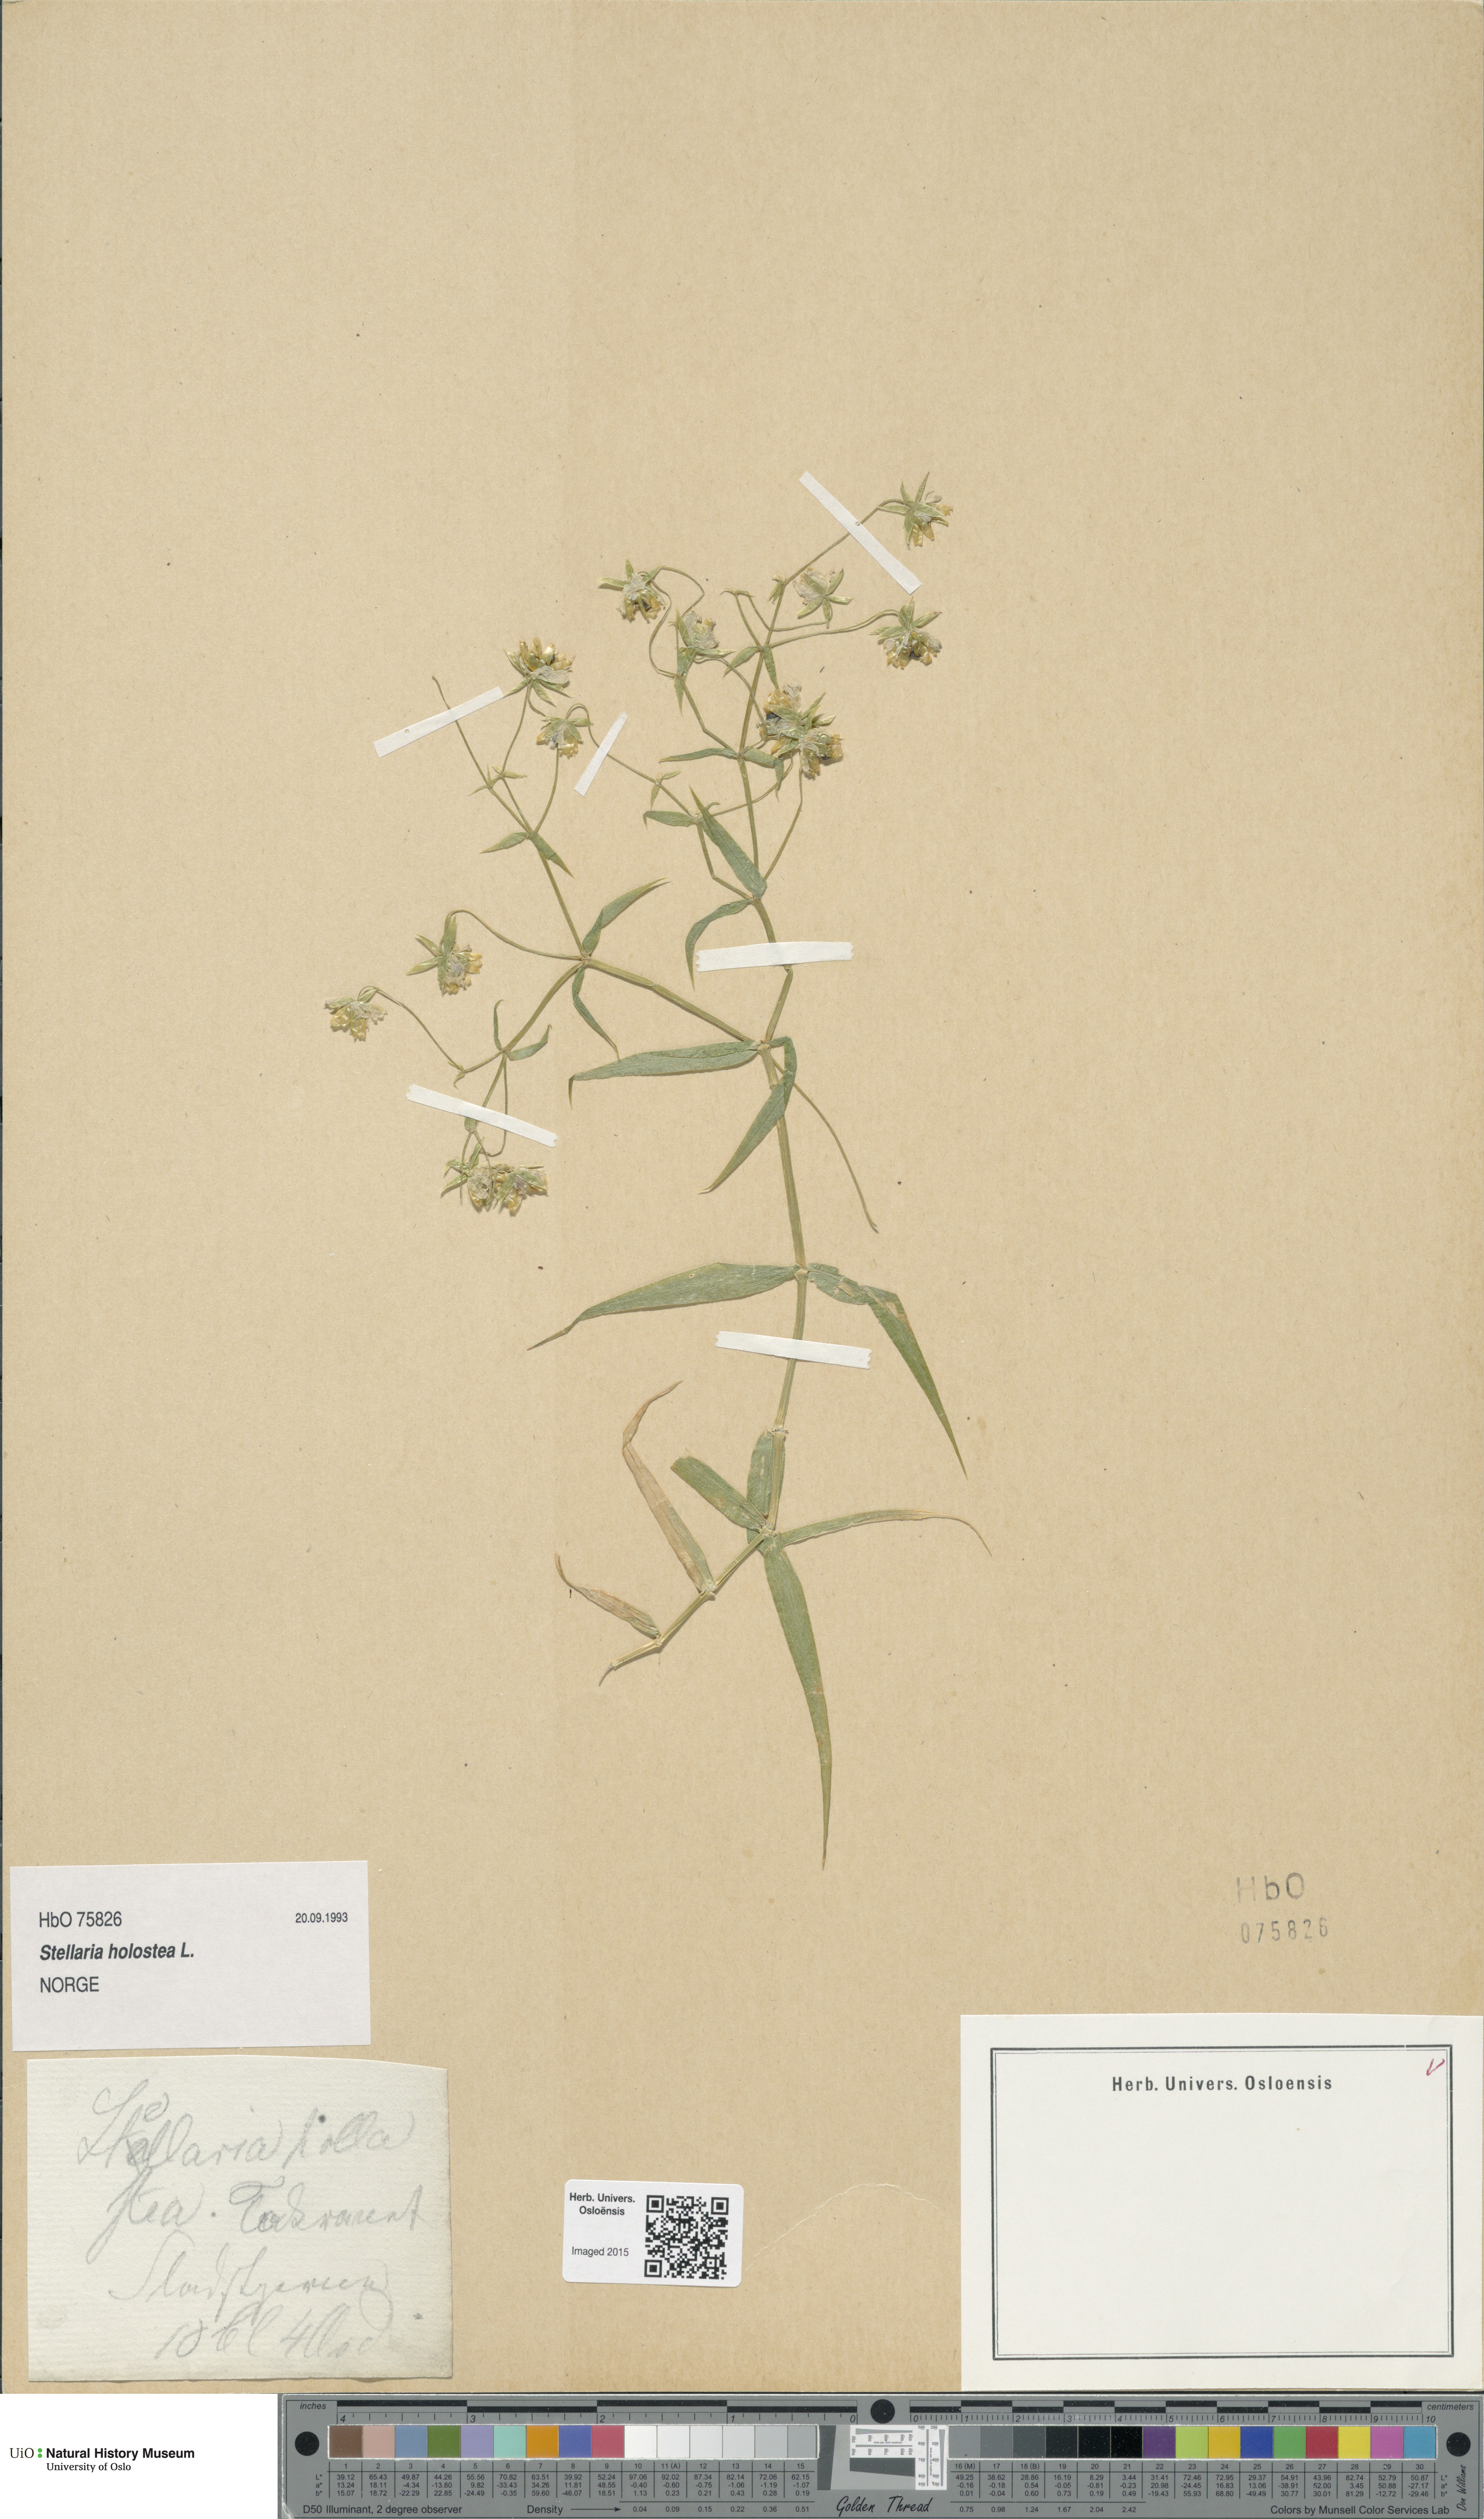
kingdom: Plantae
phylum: Tracheophyta
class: Magnoliopsida
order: Caryophyllales
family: Caryophyllaceae
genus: Rabelera
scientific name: Rabelera holostea
